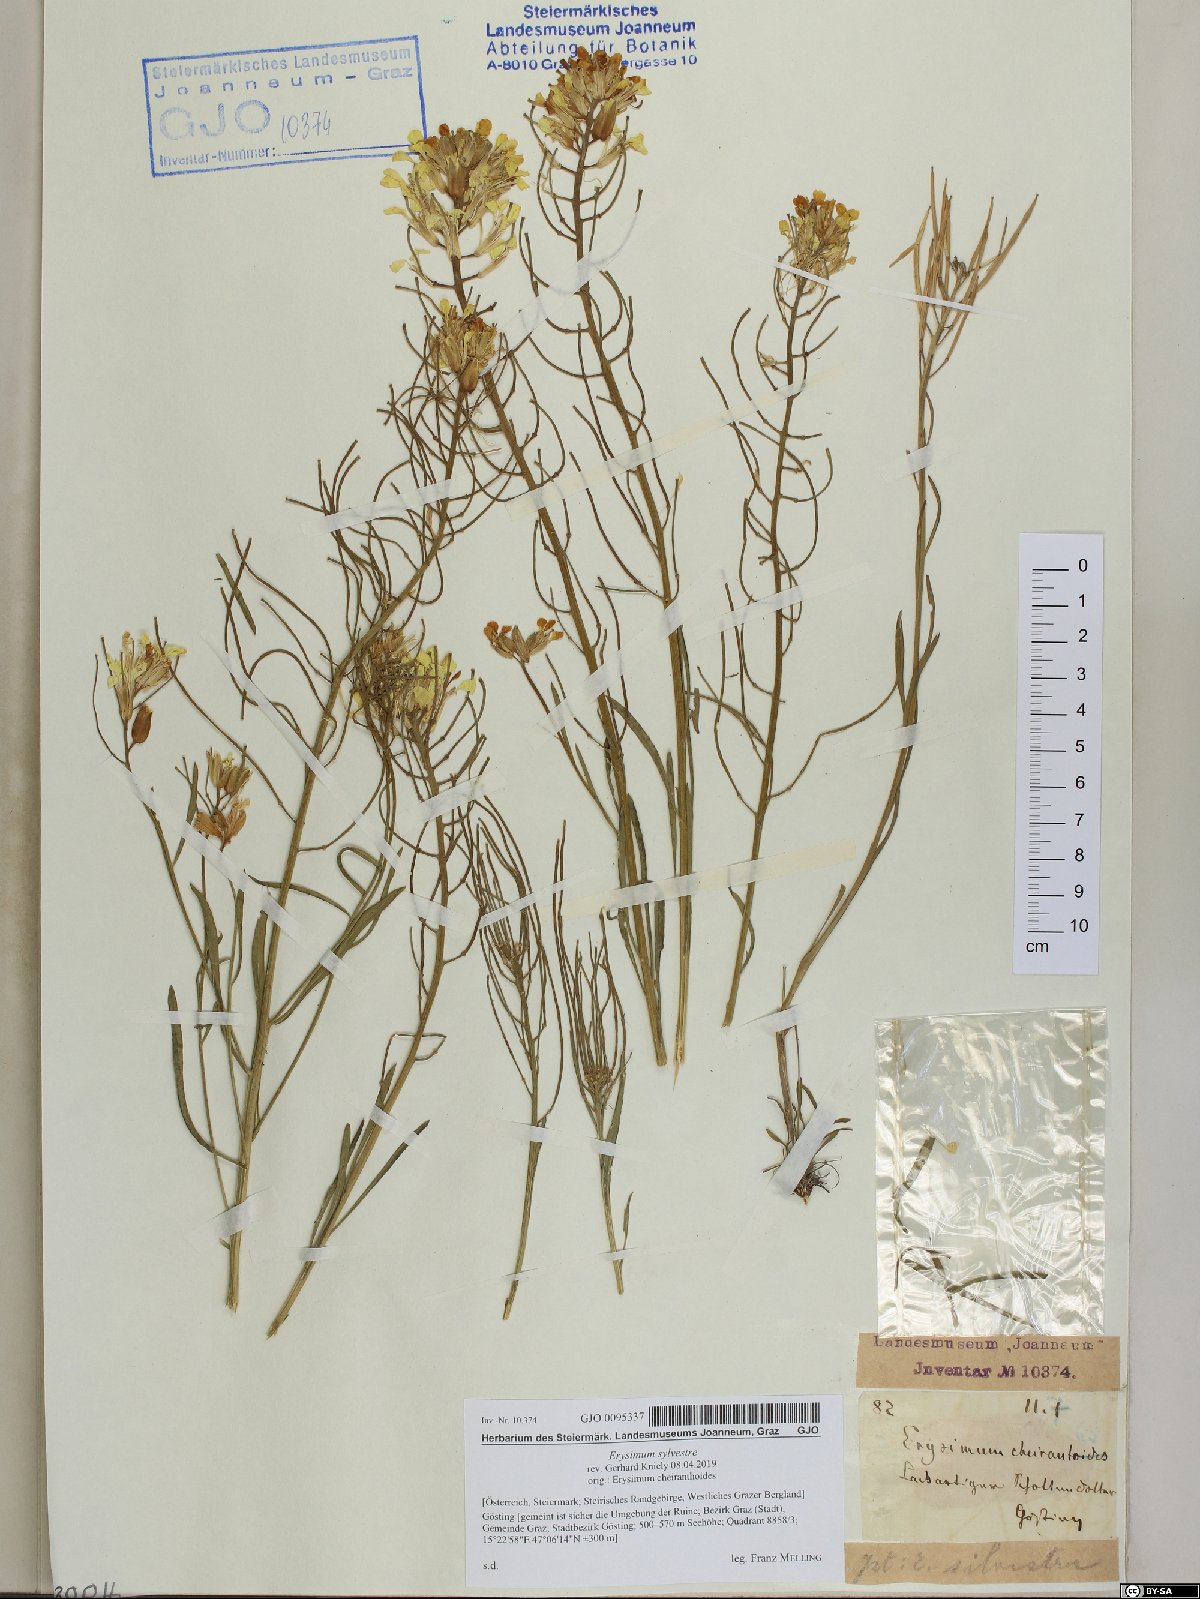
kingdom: Plantae
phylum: Tracheophyta
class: Magnoliopsida
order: Brassicales
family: Brassicaceae
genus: Erysimum
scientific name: Erysimum sylvestre
